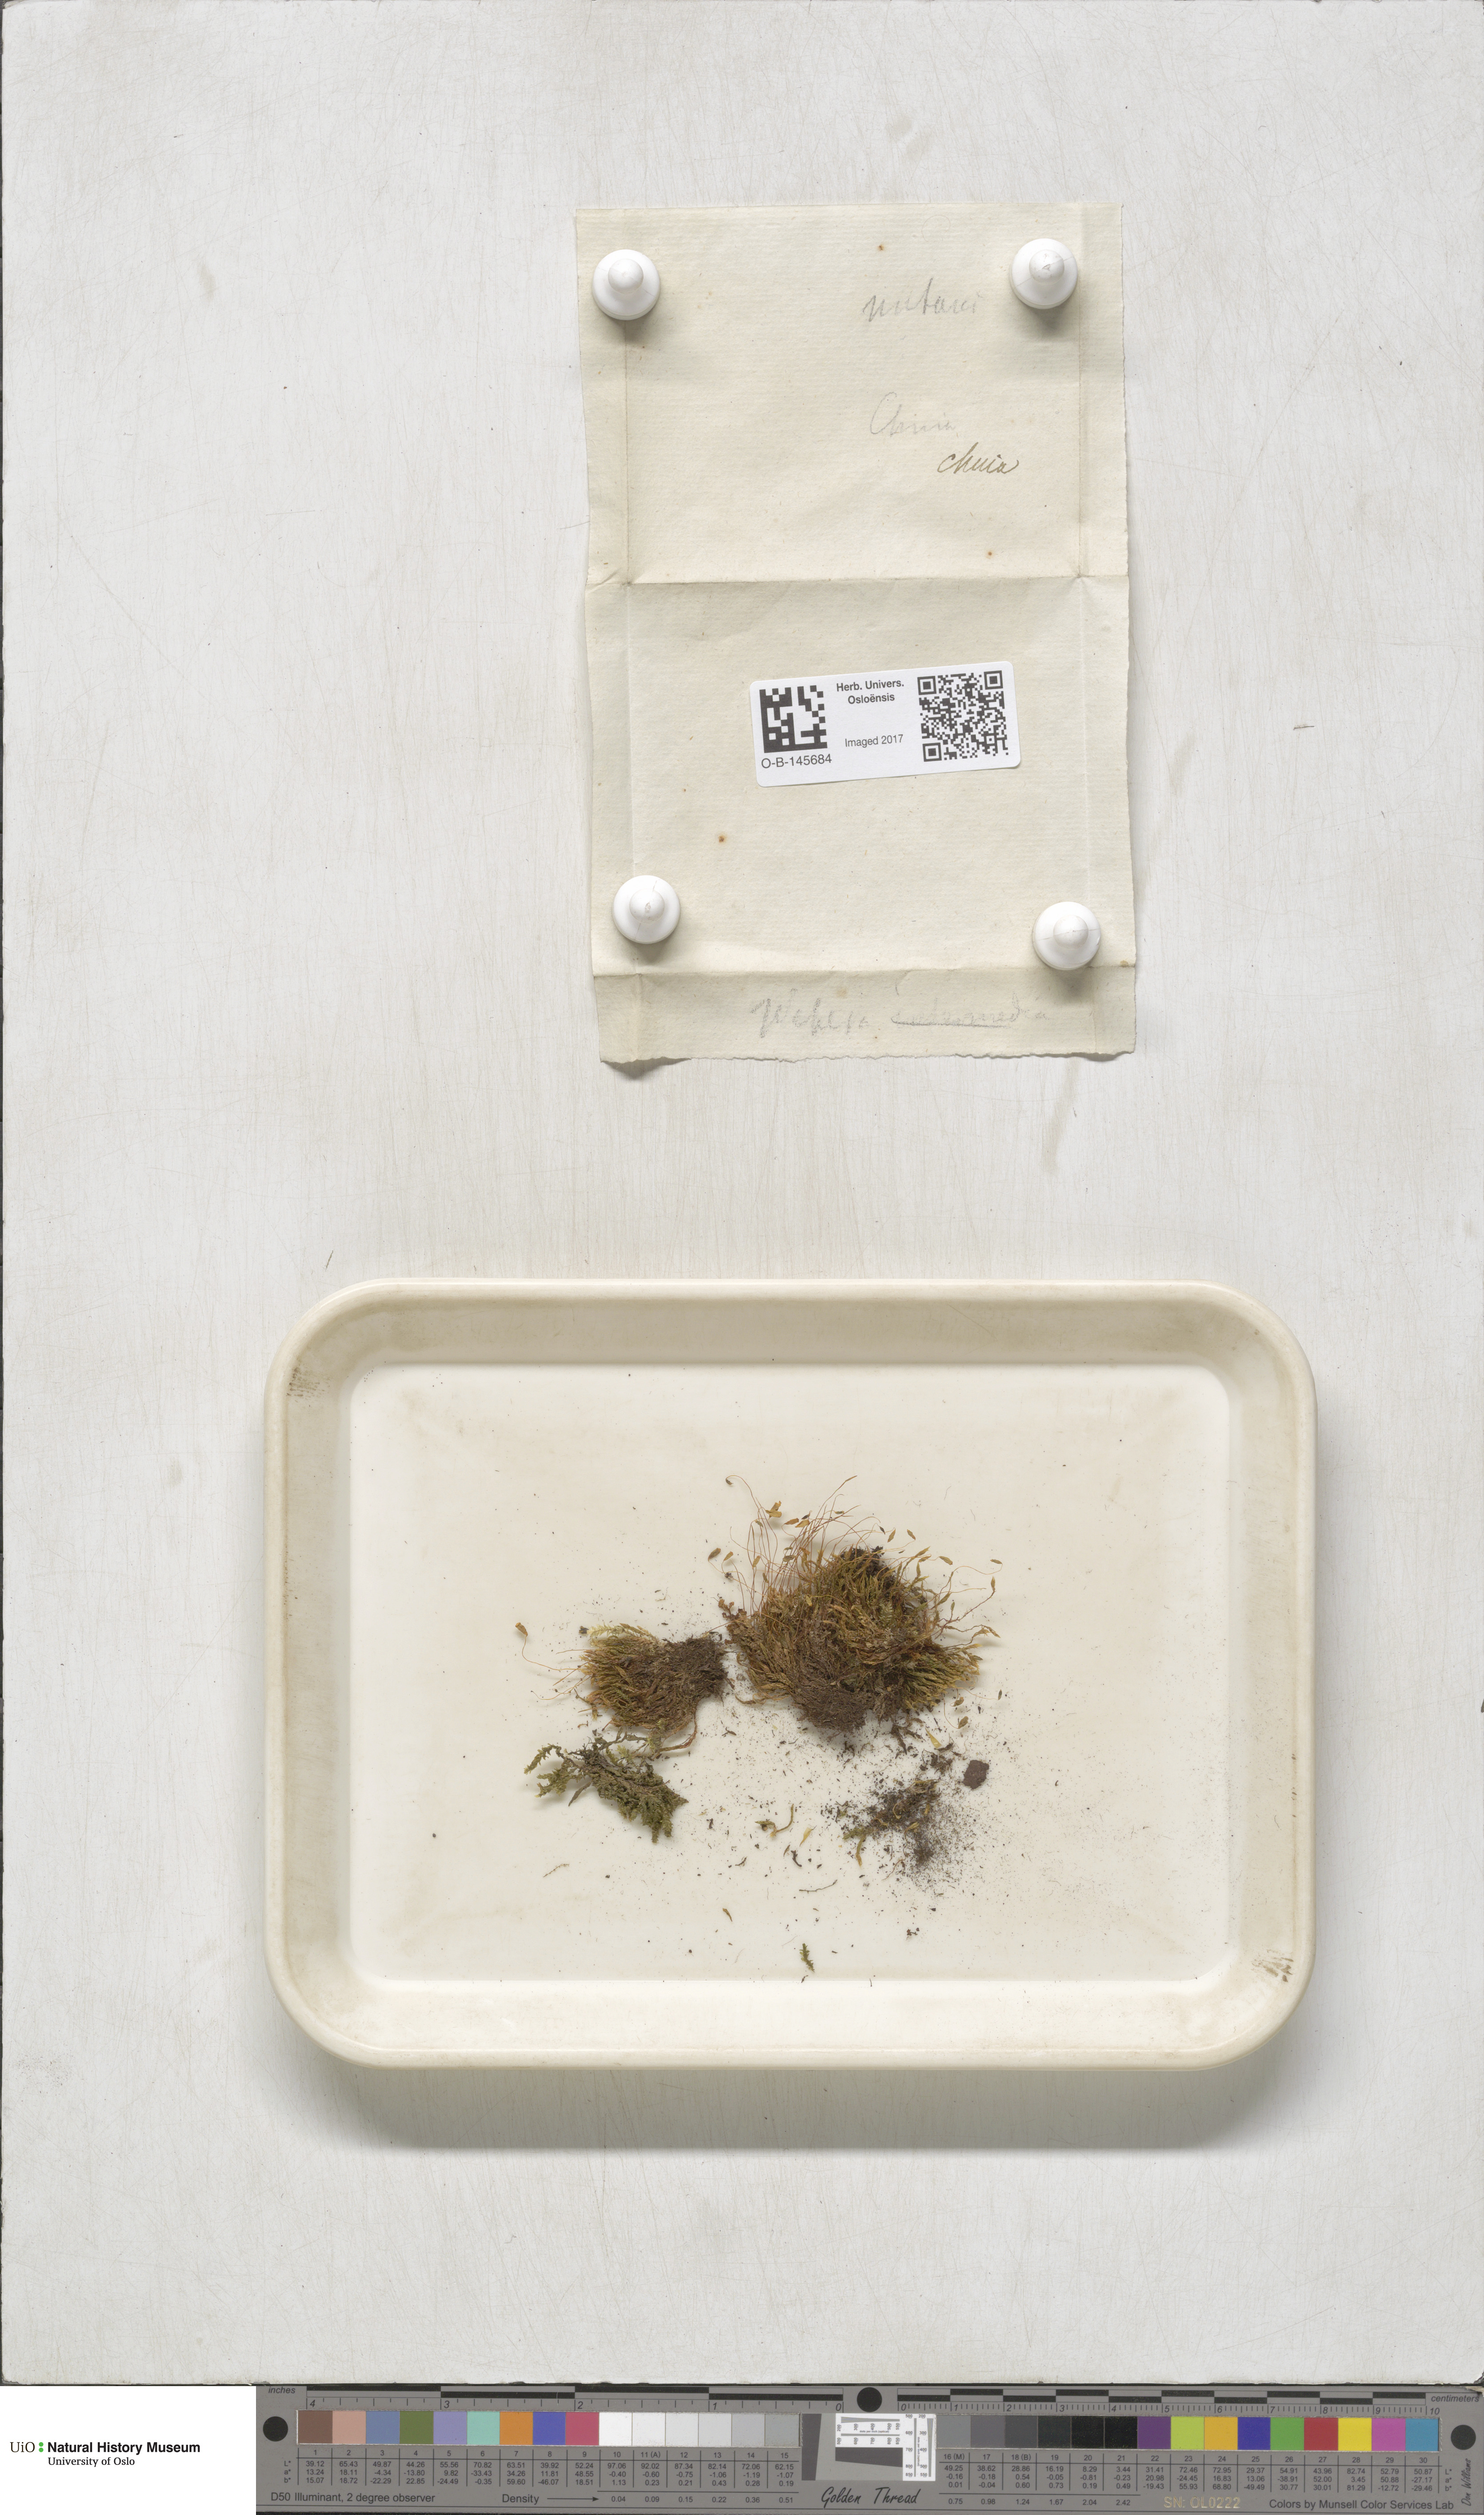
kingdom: Plantae
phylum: Bryophyta
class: Bryopsida
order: Bryales
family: Mniaceae
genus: Pohlia
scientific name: Pohlia nutans
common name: Nodding thread-moss
